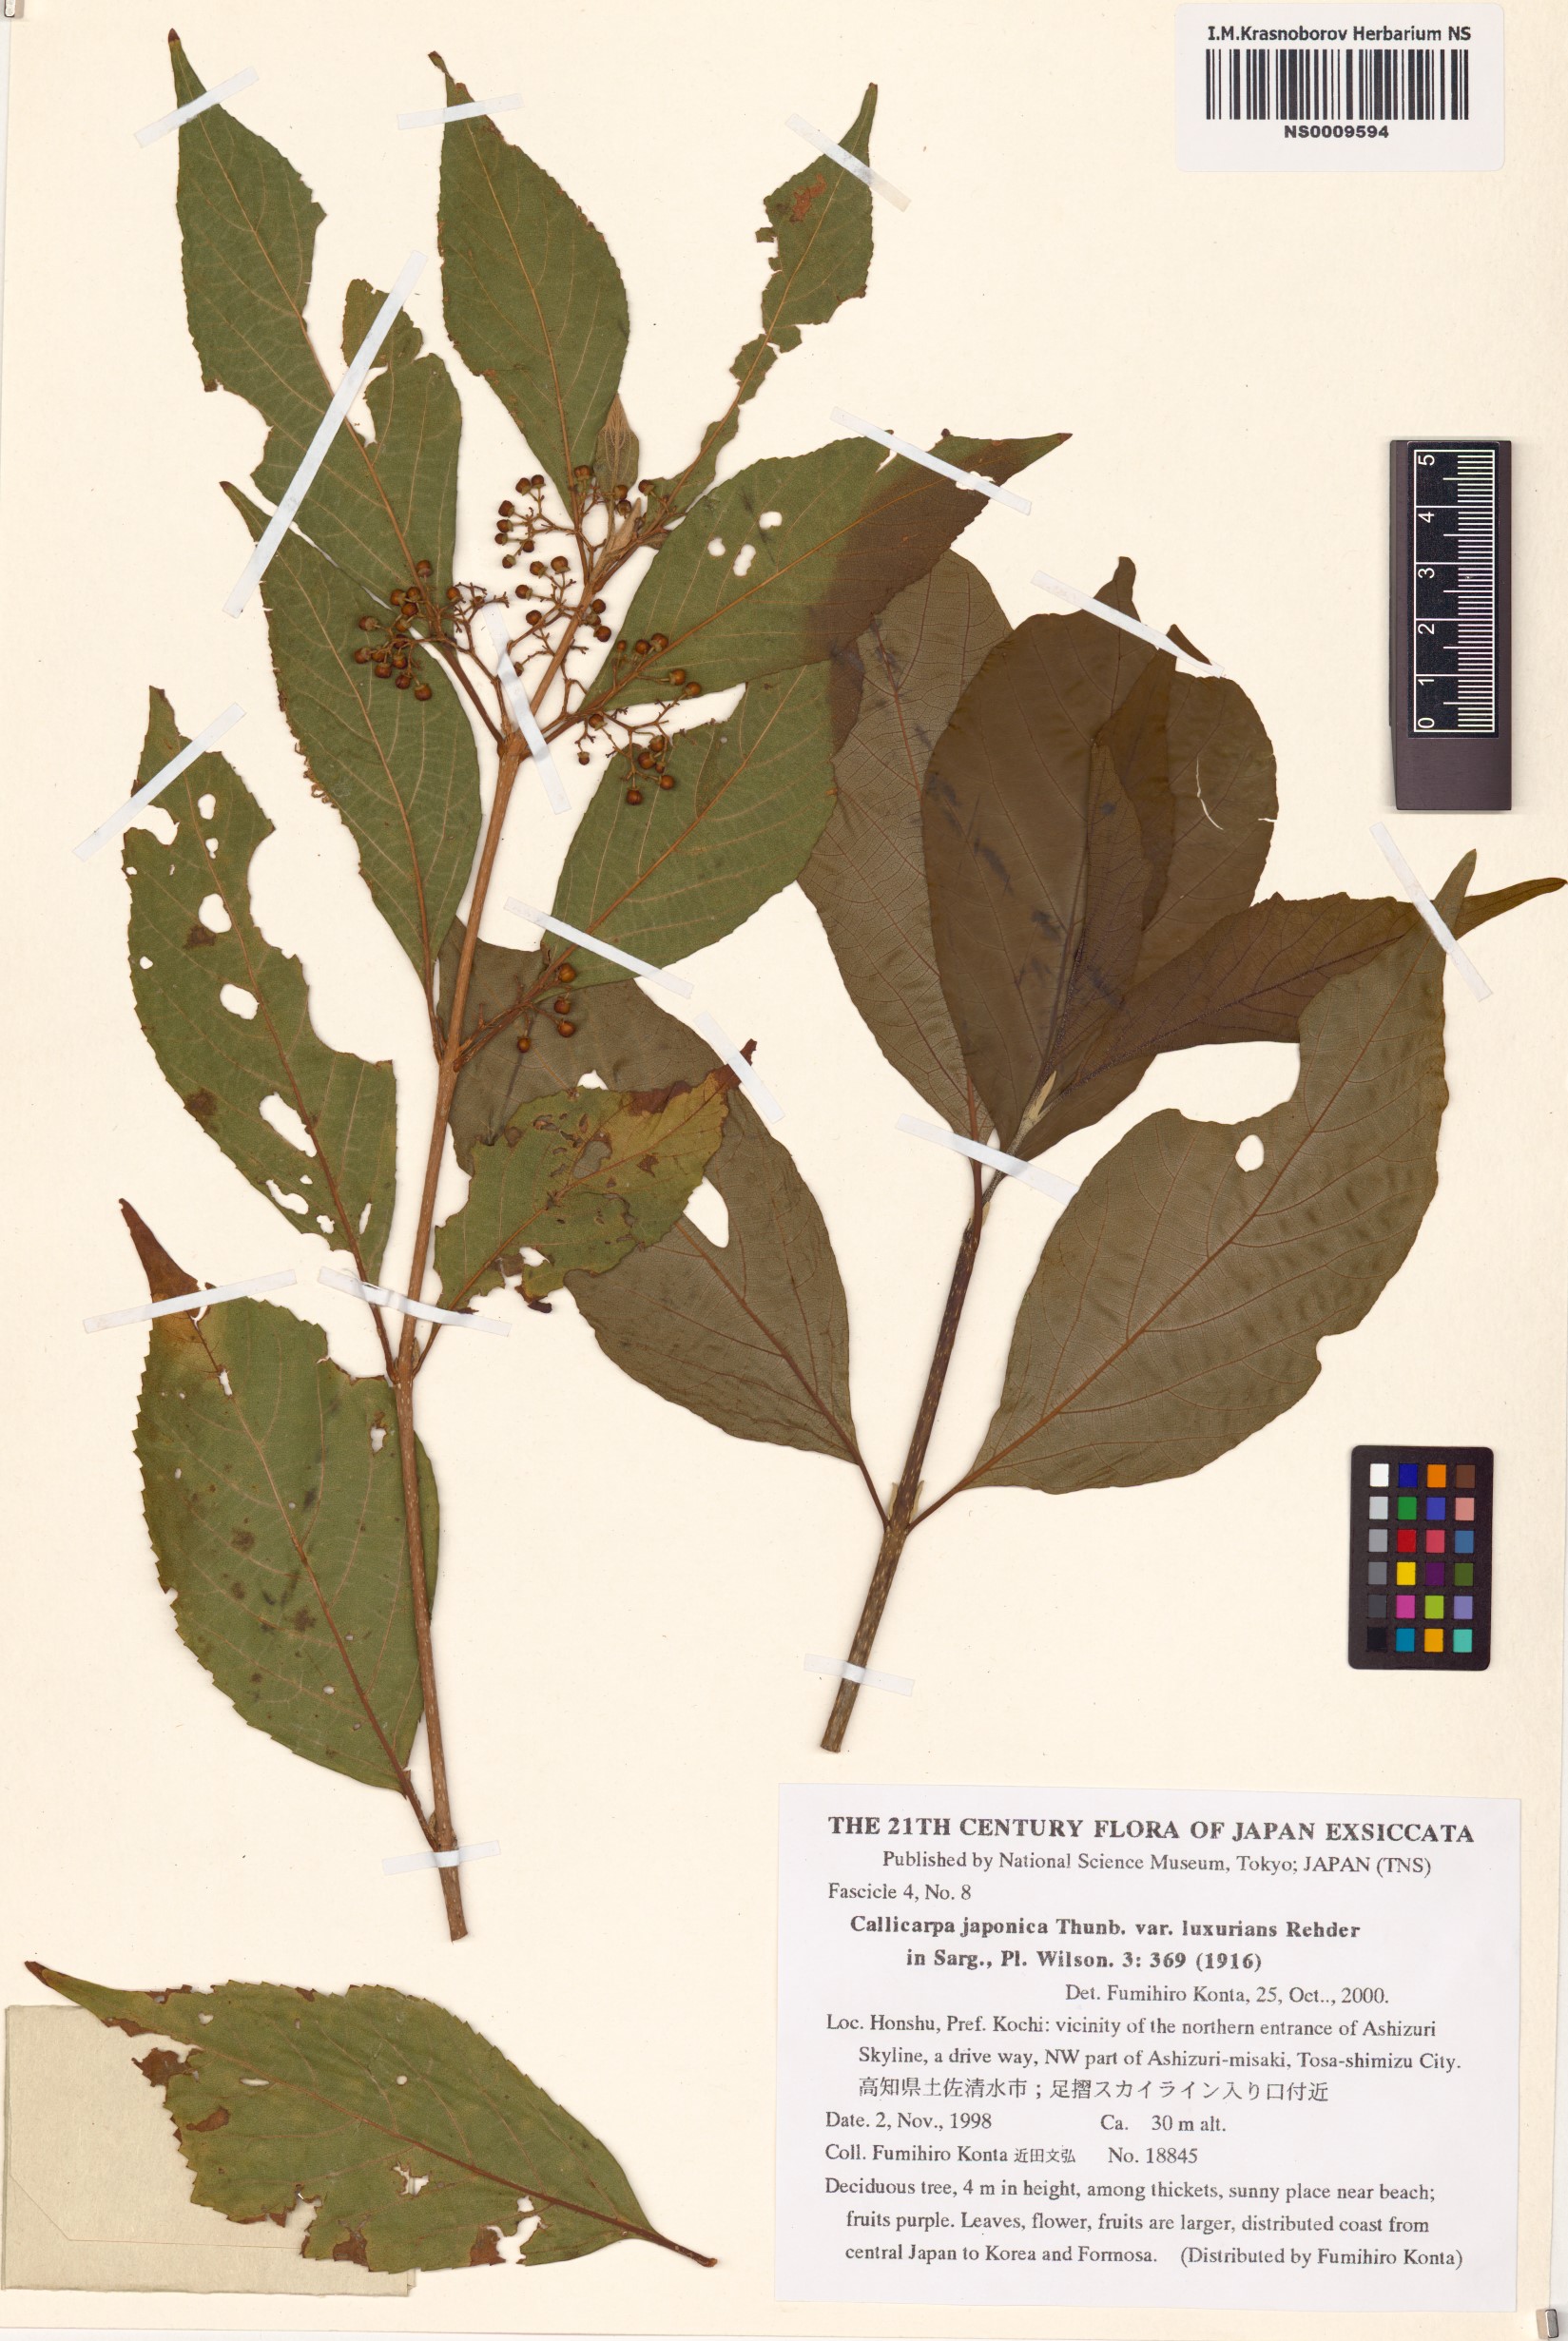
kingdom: Plantae
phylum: Tracheophyta
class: Magnoliopsida
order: Lamiales
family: Lamiaceae
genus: Callicarpa
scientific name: Callicarpa japonica
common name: Japanese beauty-berry
